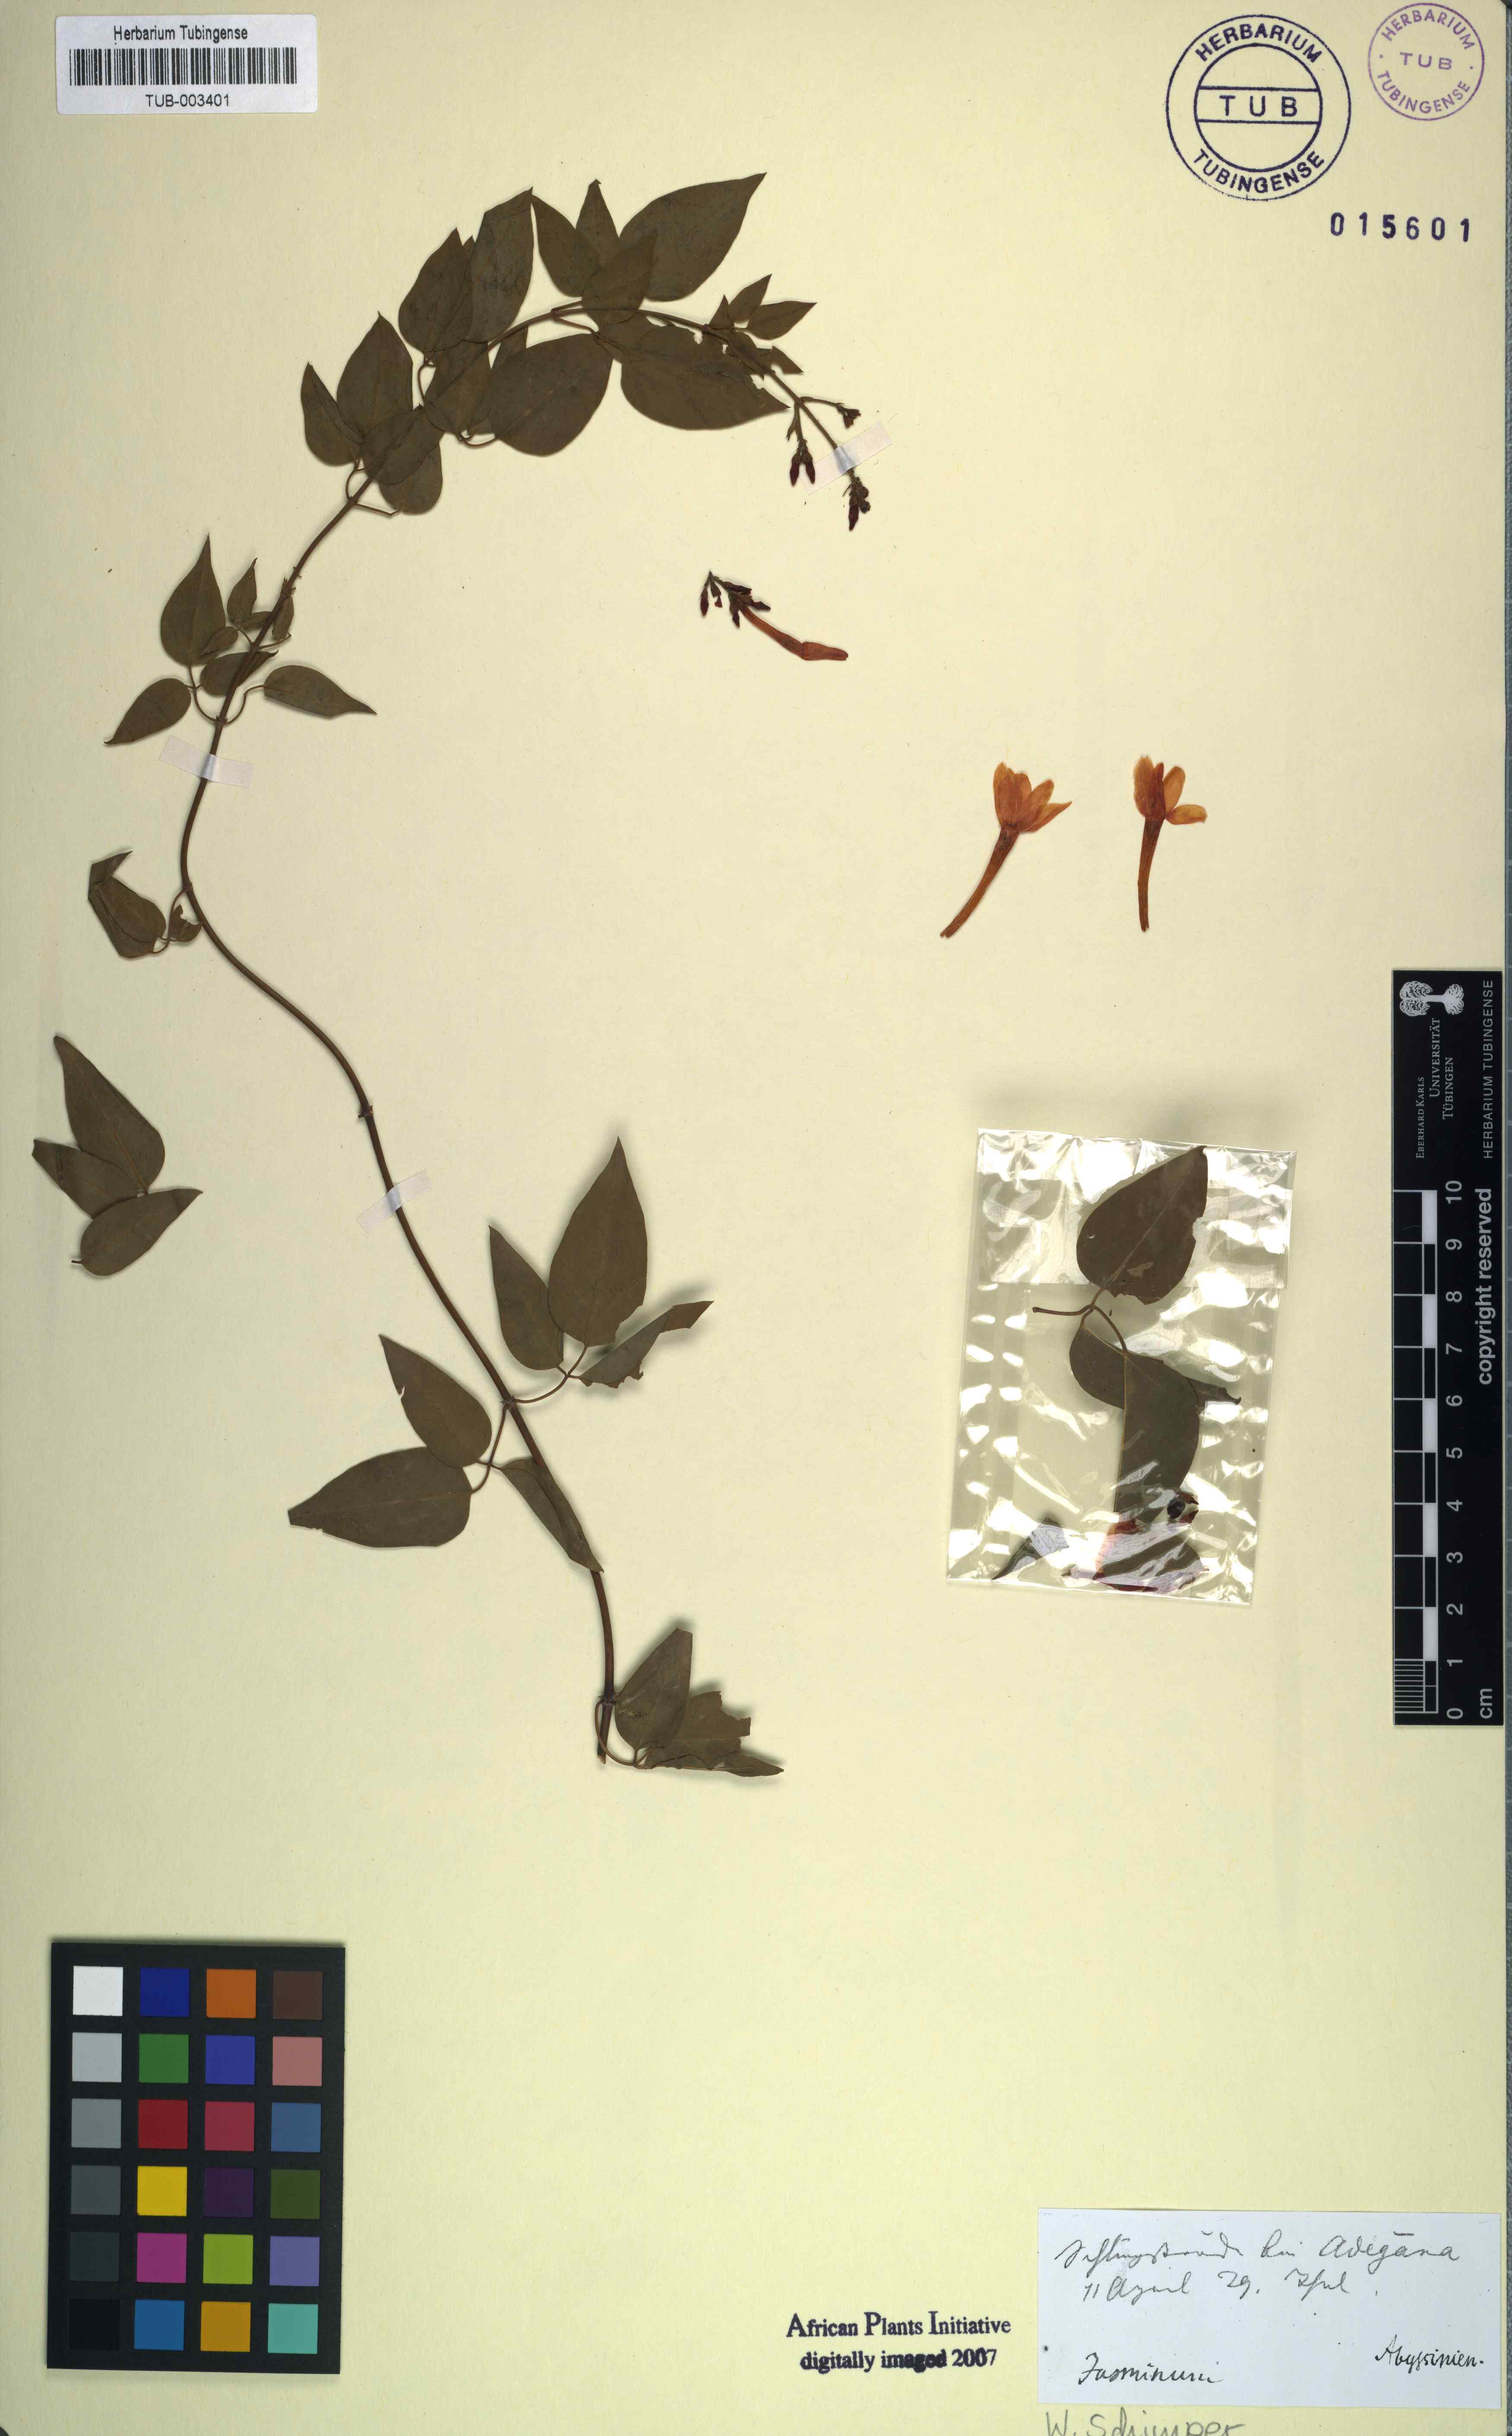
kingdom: Plantae
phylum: Tracheophyta
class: Magnoliopsida
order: Lamiales
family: Oleaceae
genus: Jasminum
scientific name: Jasminum
